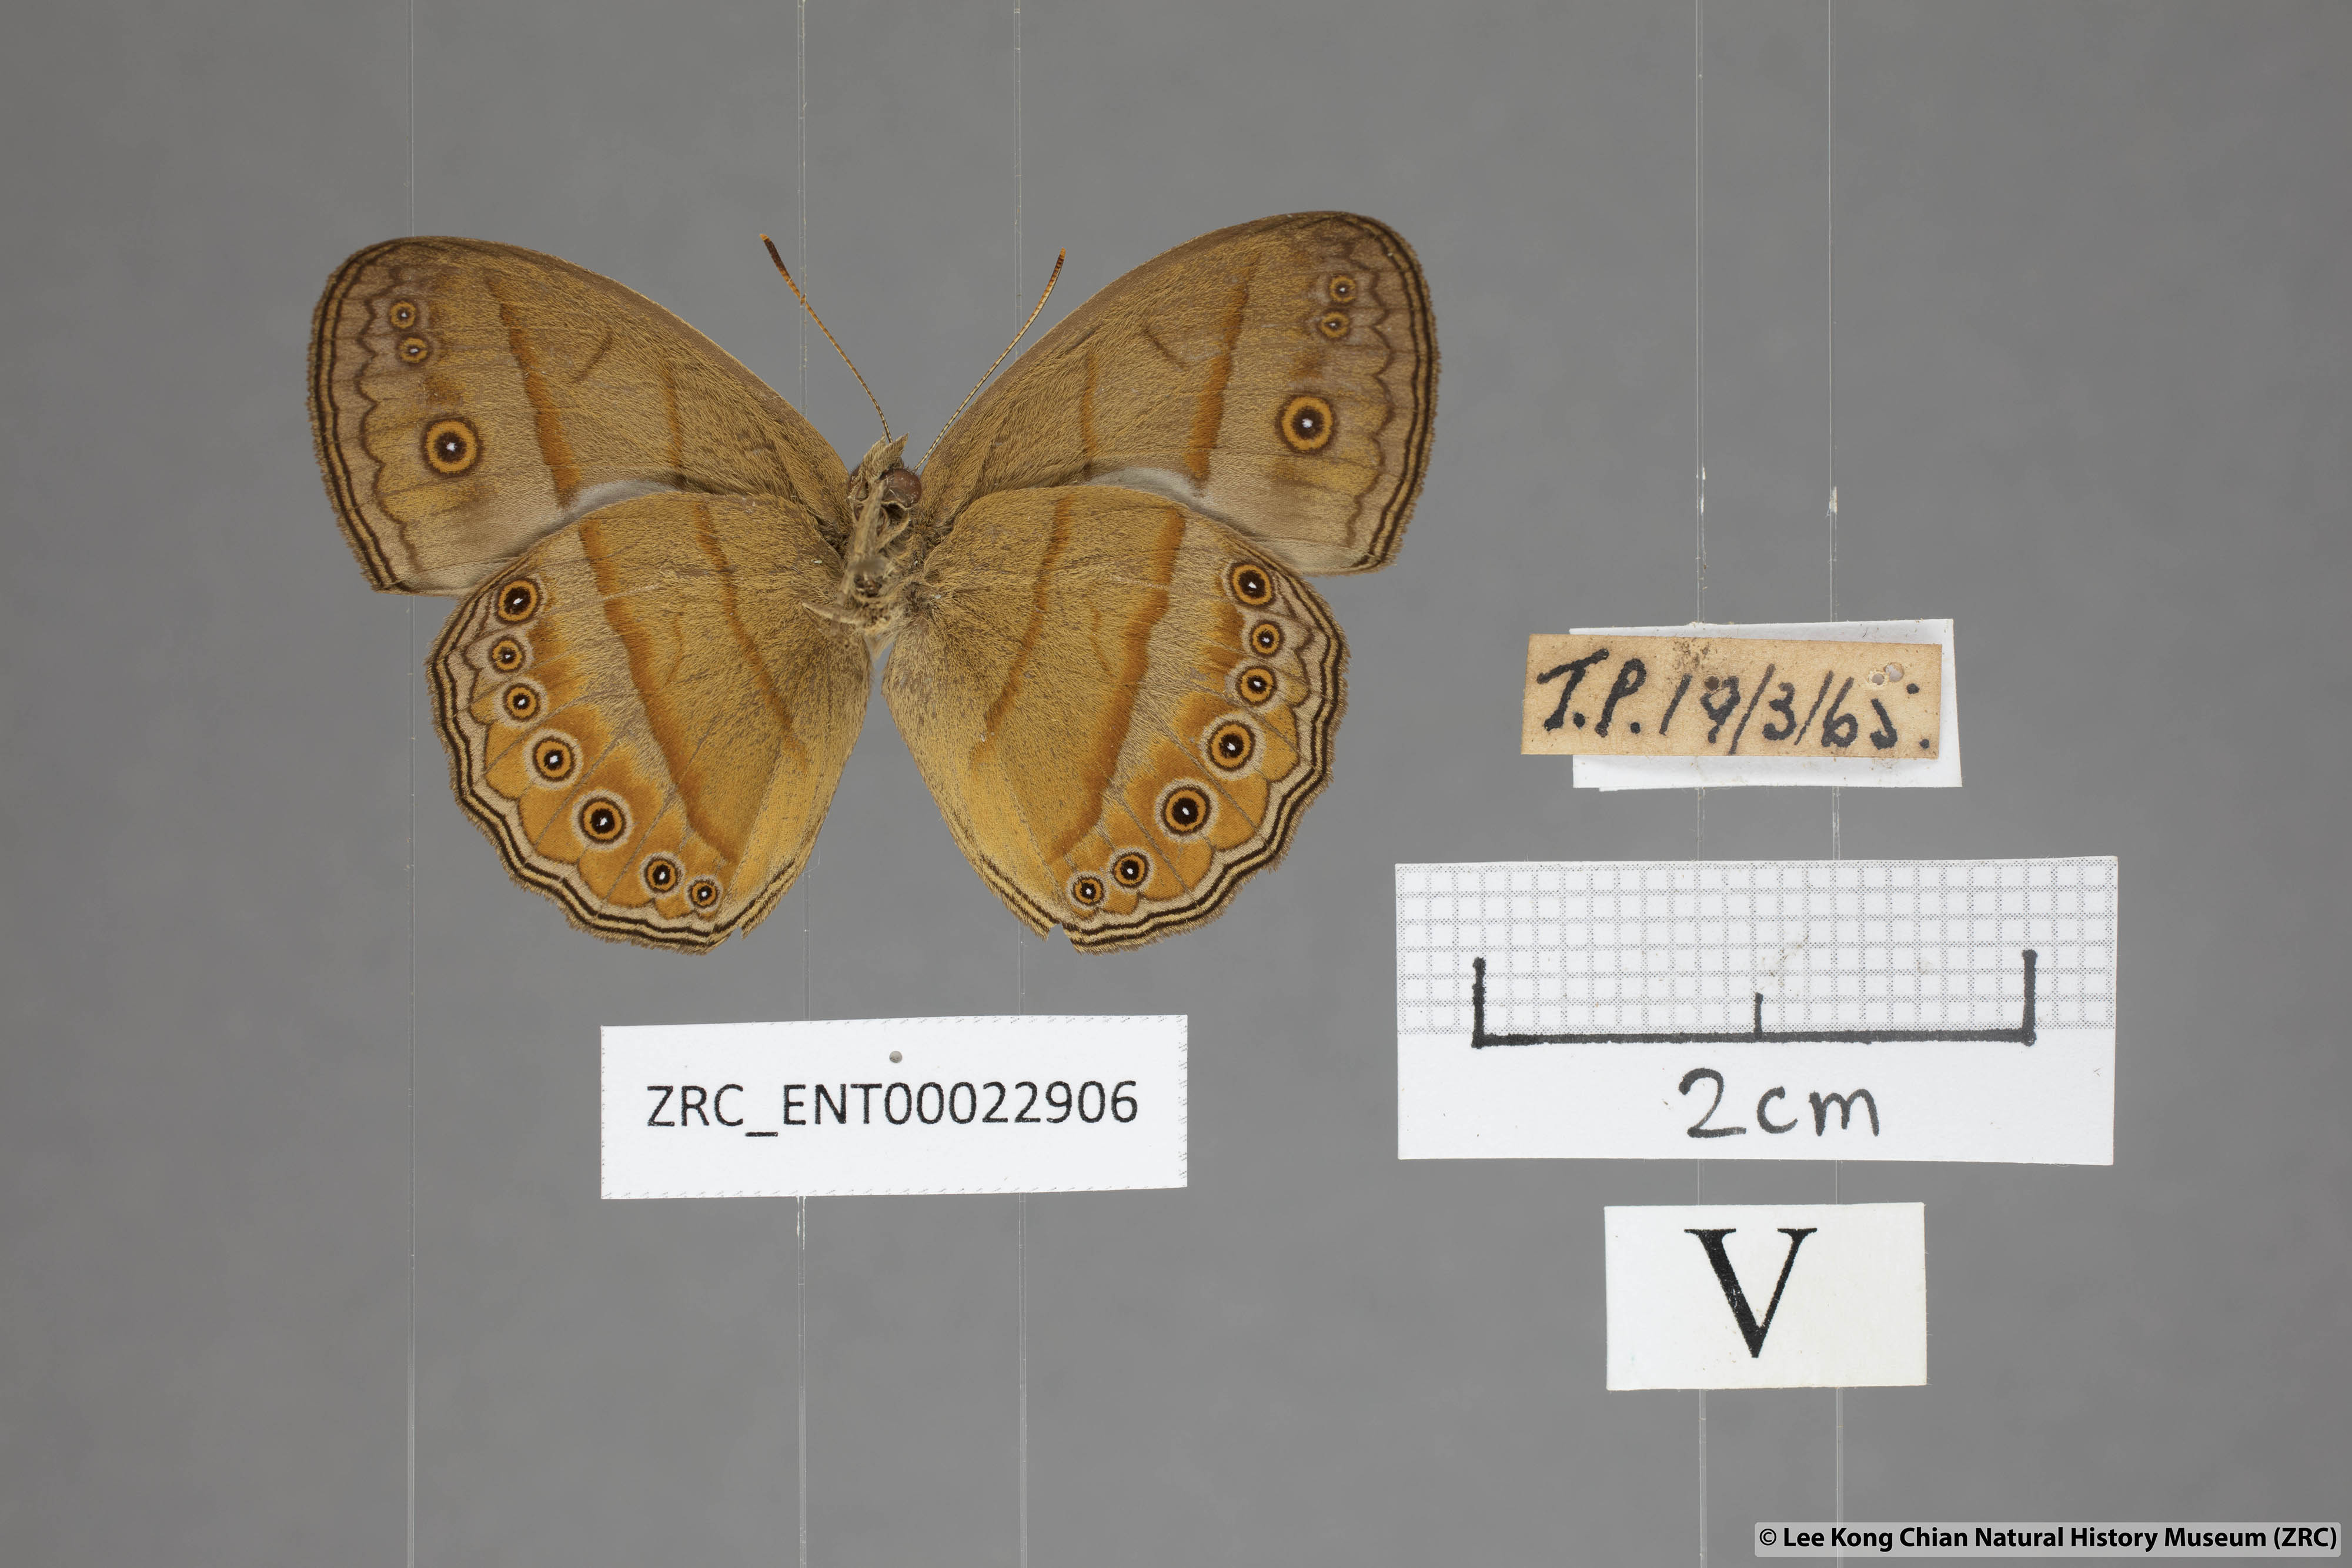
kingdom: Animalia
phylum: Arthropoda
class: Insecta
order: Lepidoptera
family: Nymphalidae
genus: Mycalesis
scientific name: Mycalesis fuscum
